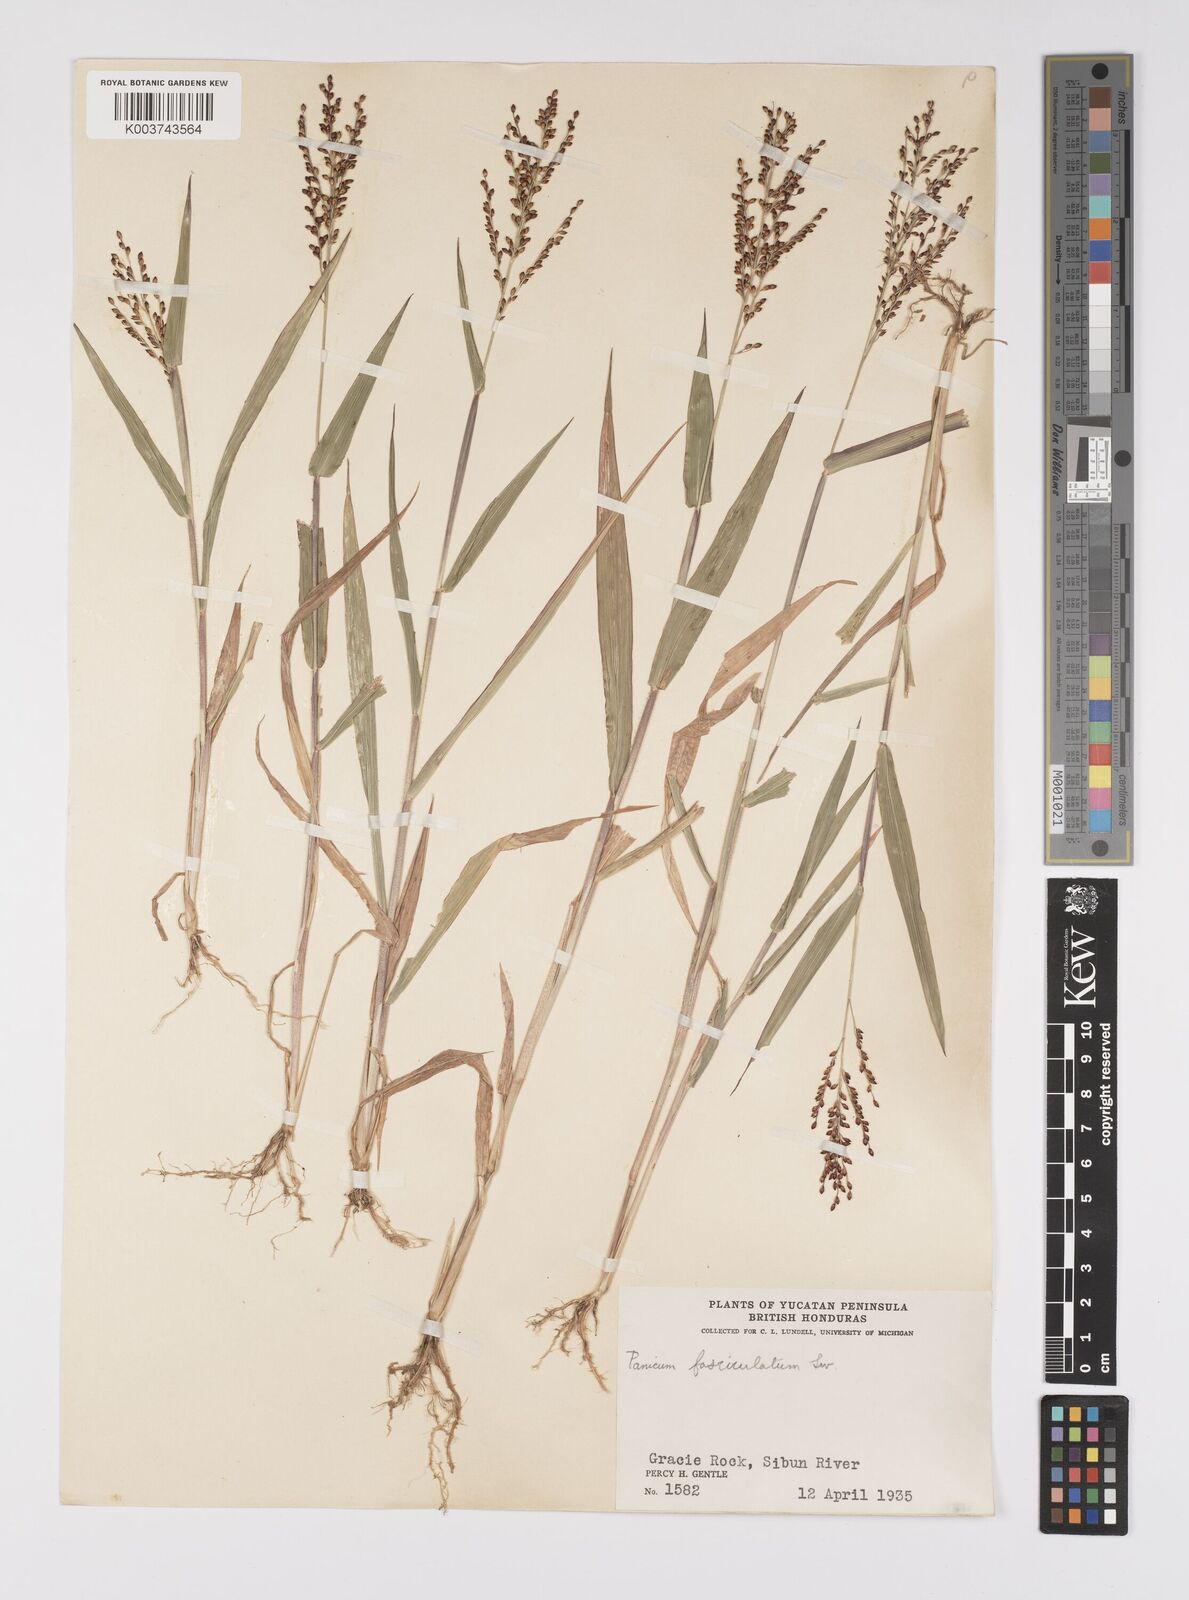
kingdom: Plantae
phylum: Tracheophyta
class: Liliopsida
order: Poales
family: Poaceae
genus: Urochloa
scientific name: Urochloa fusca
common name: Browntop signal grass
